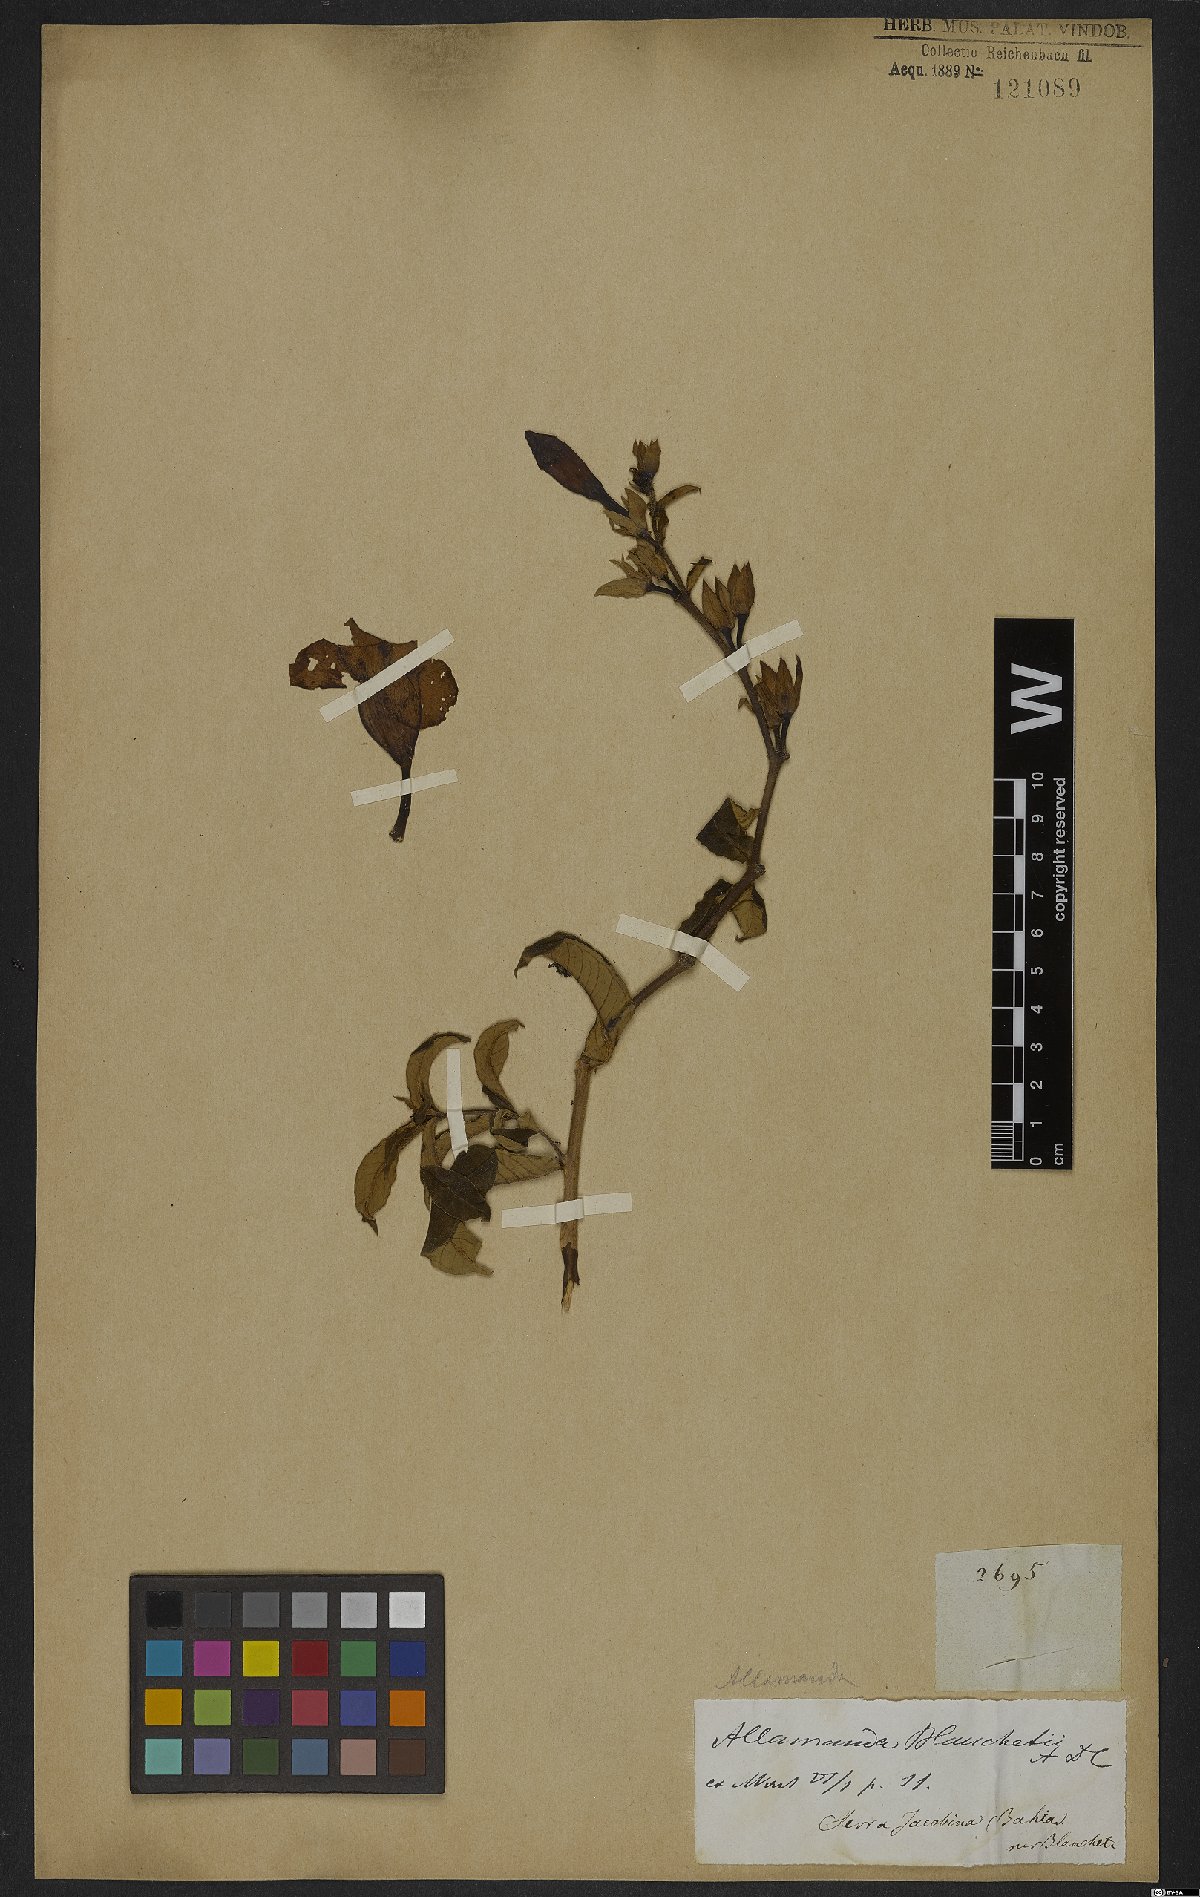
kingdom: Plantae
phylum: Tracheophyta
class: Magnoliopsida
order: Gentianales
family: Apocynaceae
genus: Allamanda
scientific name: Allamanda blanchetii
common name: Purple allamanda
